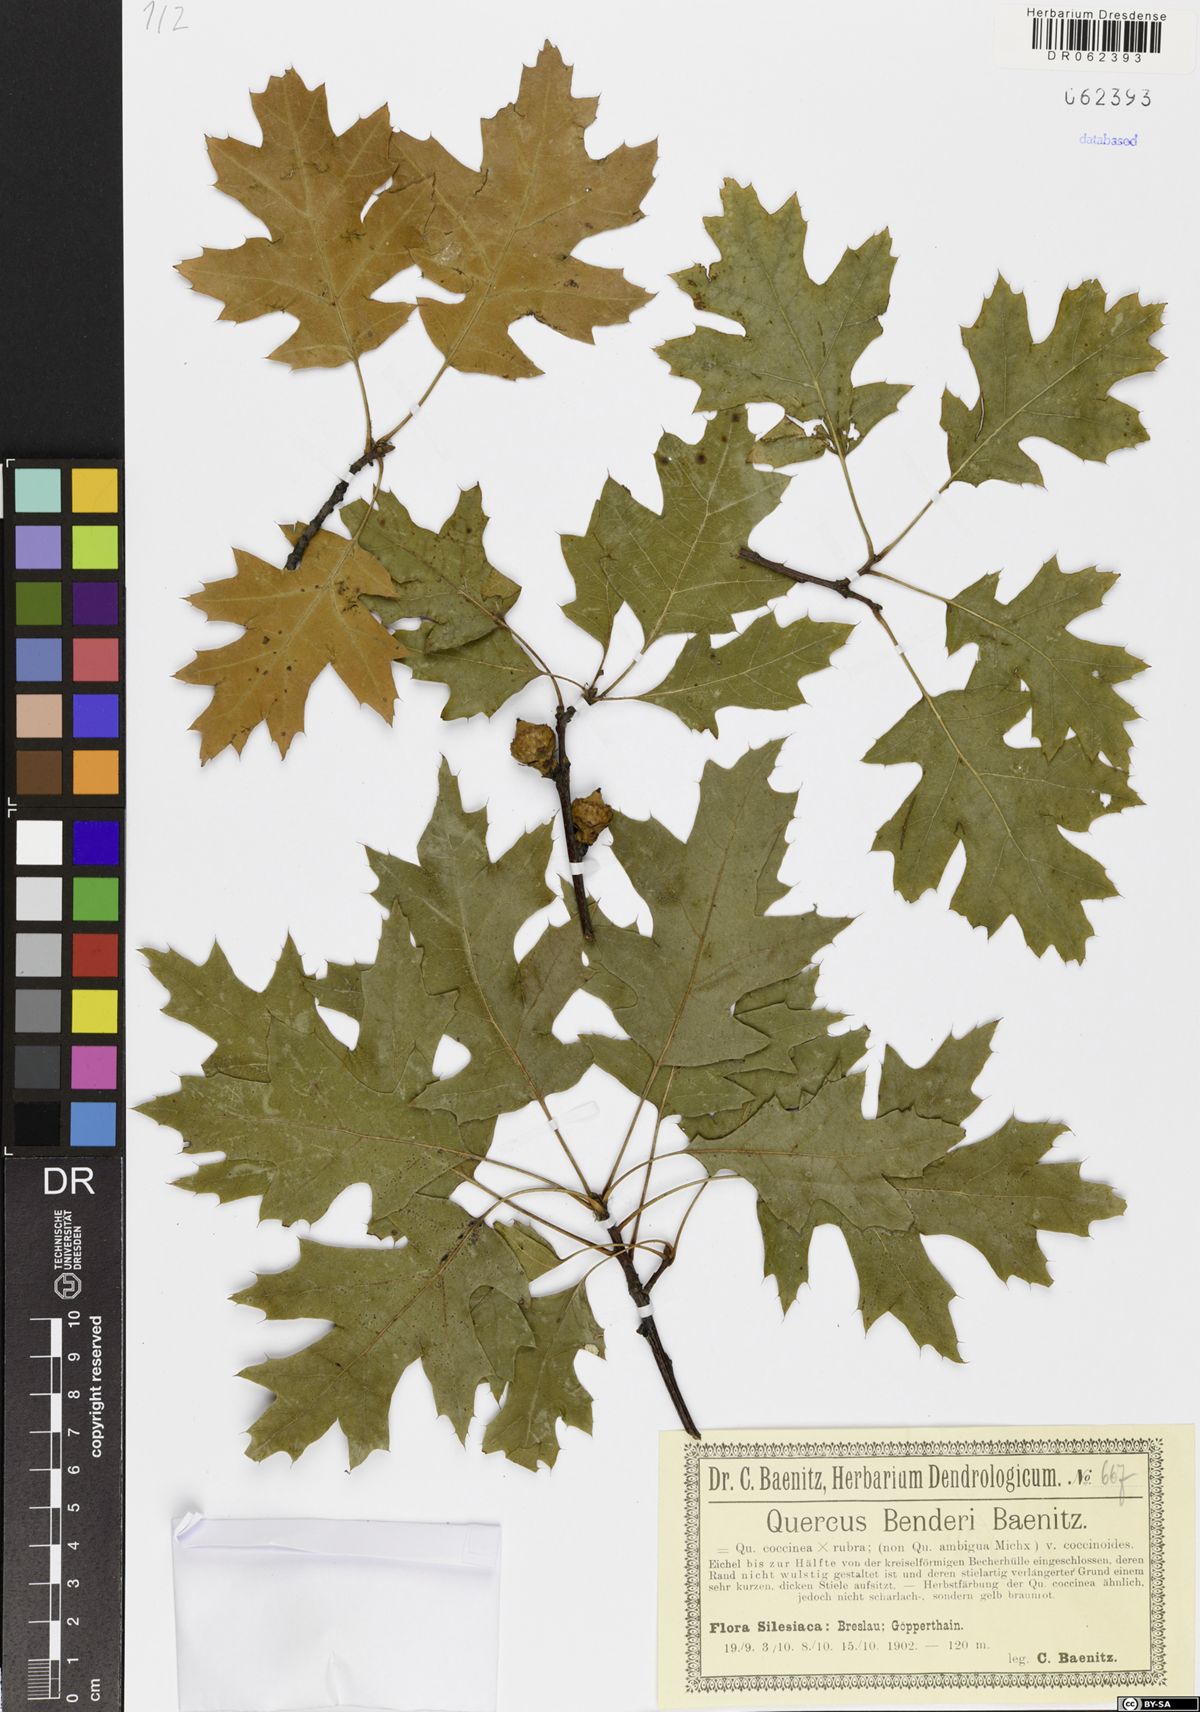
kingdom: Plantae
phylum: Tracheophyta
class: Magnoliopsida
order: Fagales
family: Fagaceae
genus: Quercus
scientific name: Quercus benderi
